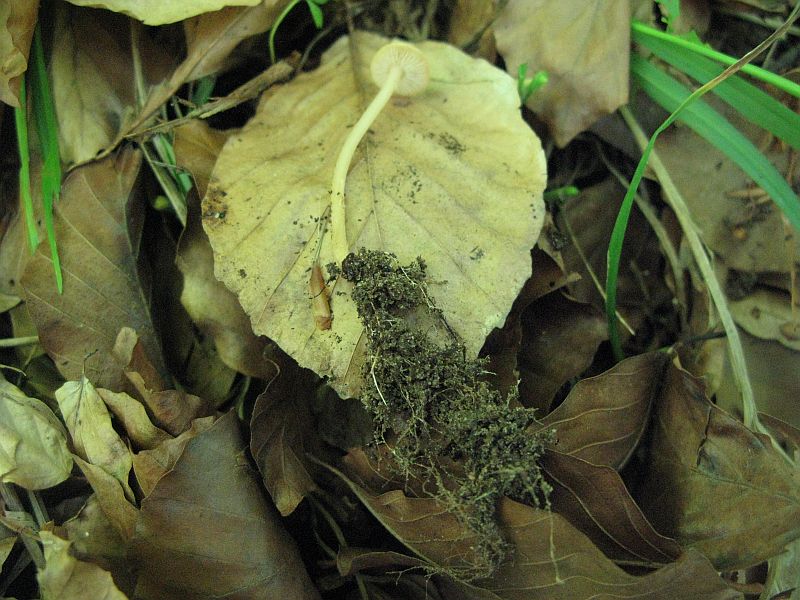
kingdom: Fungi
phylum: Basidiomycota
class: Agaricomycetes
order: Agaricales
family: Omphalotaceae
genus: Gymnopus
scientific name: Gymnopus aquosus
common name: bleg fladhat
